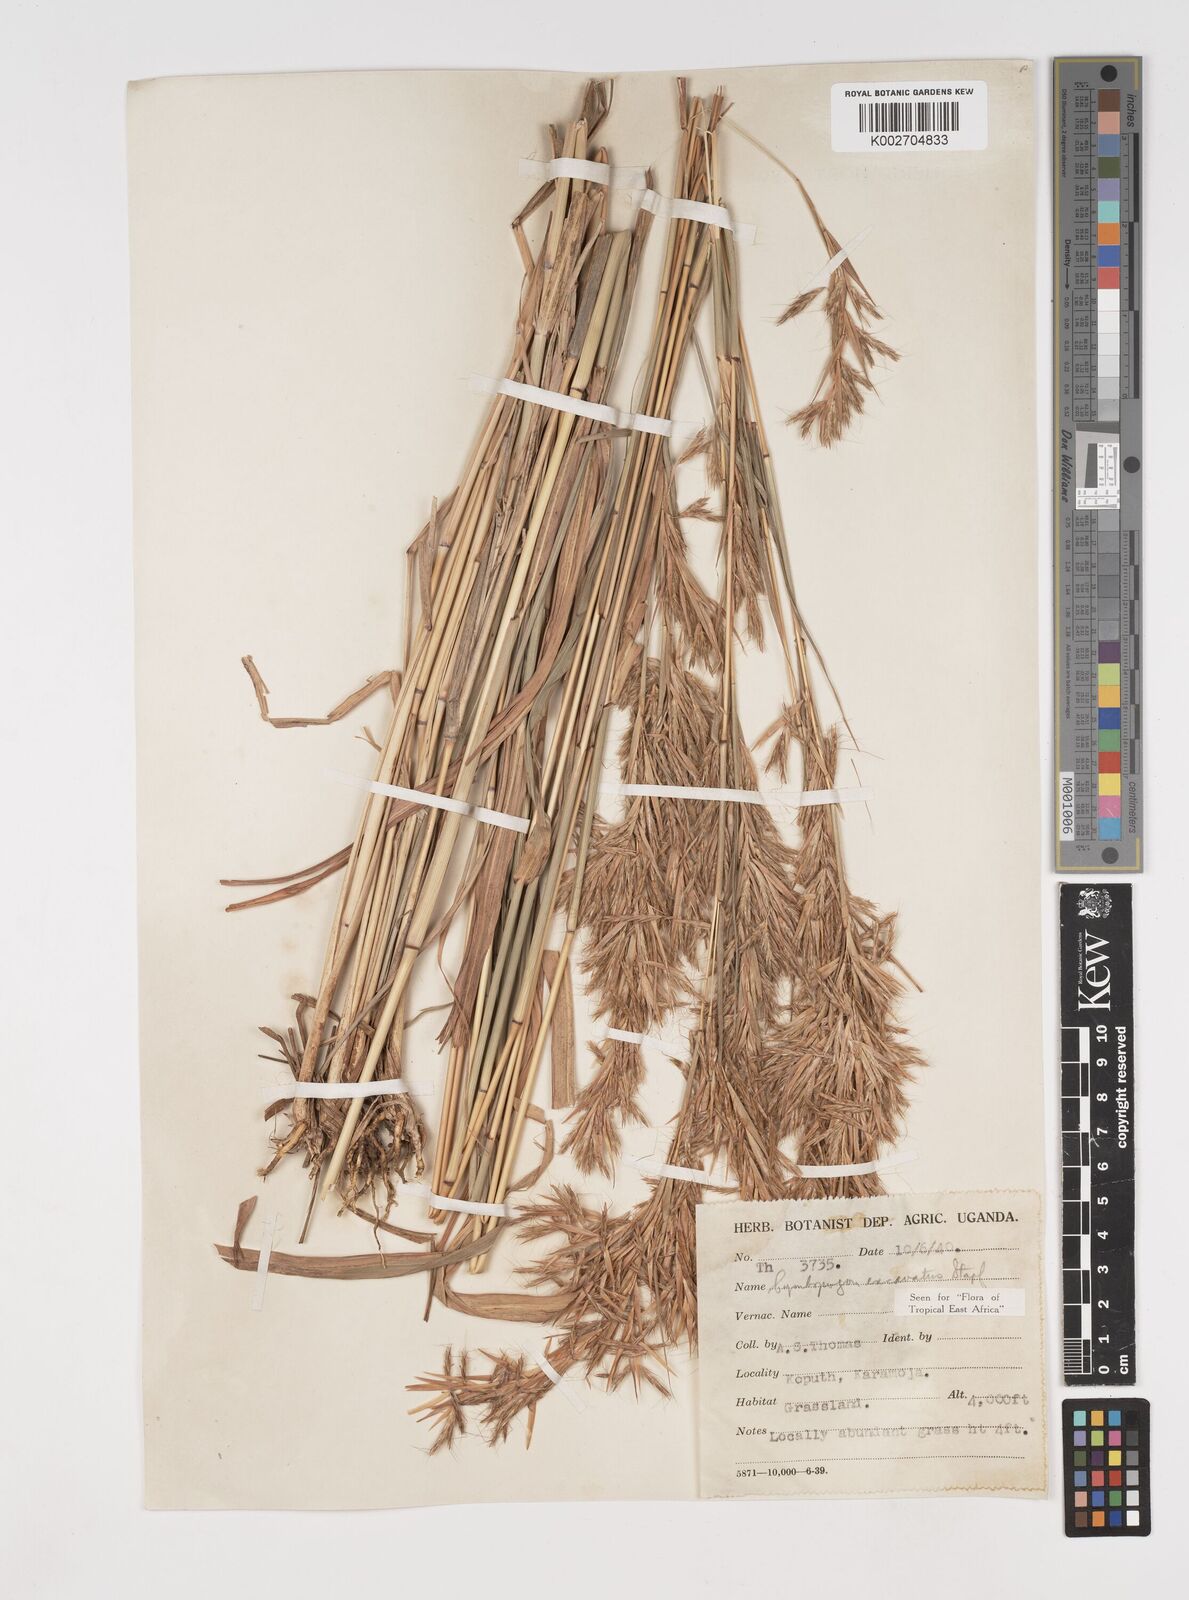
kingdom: Plantae
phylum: Tracheophyta
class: Liliopsida
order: Poales
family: Poaceae
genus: Cymbopogon
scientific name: Cymbopogon caesius
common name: Kachi grass
